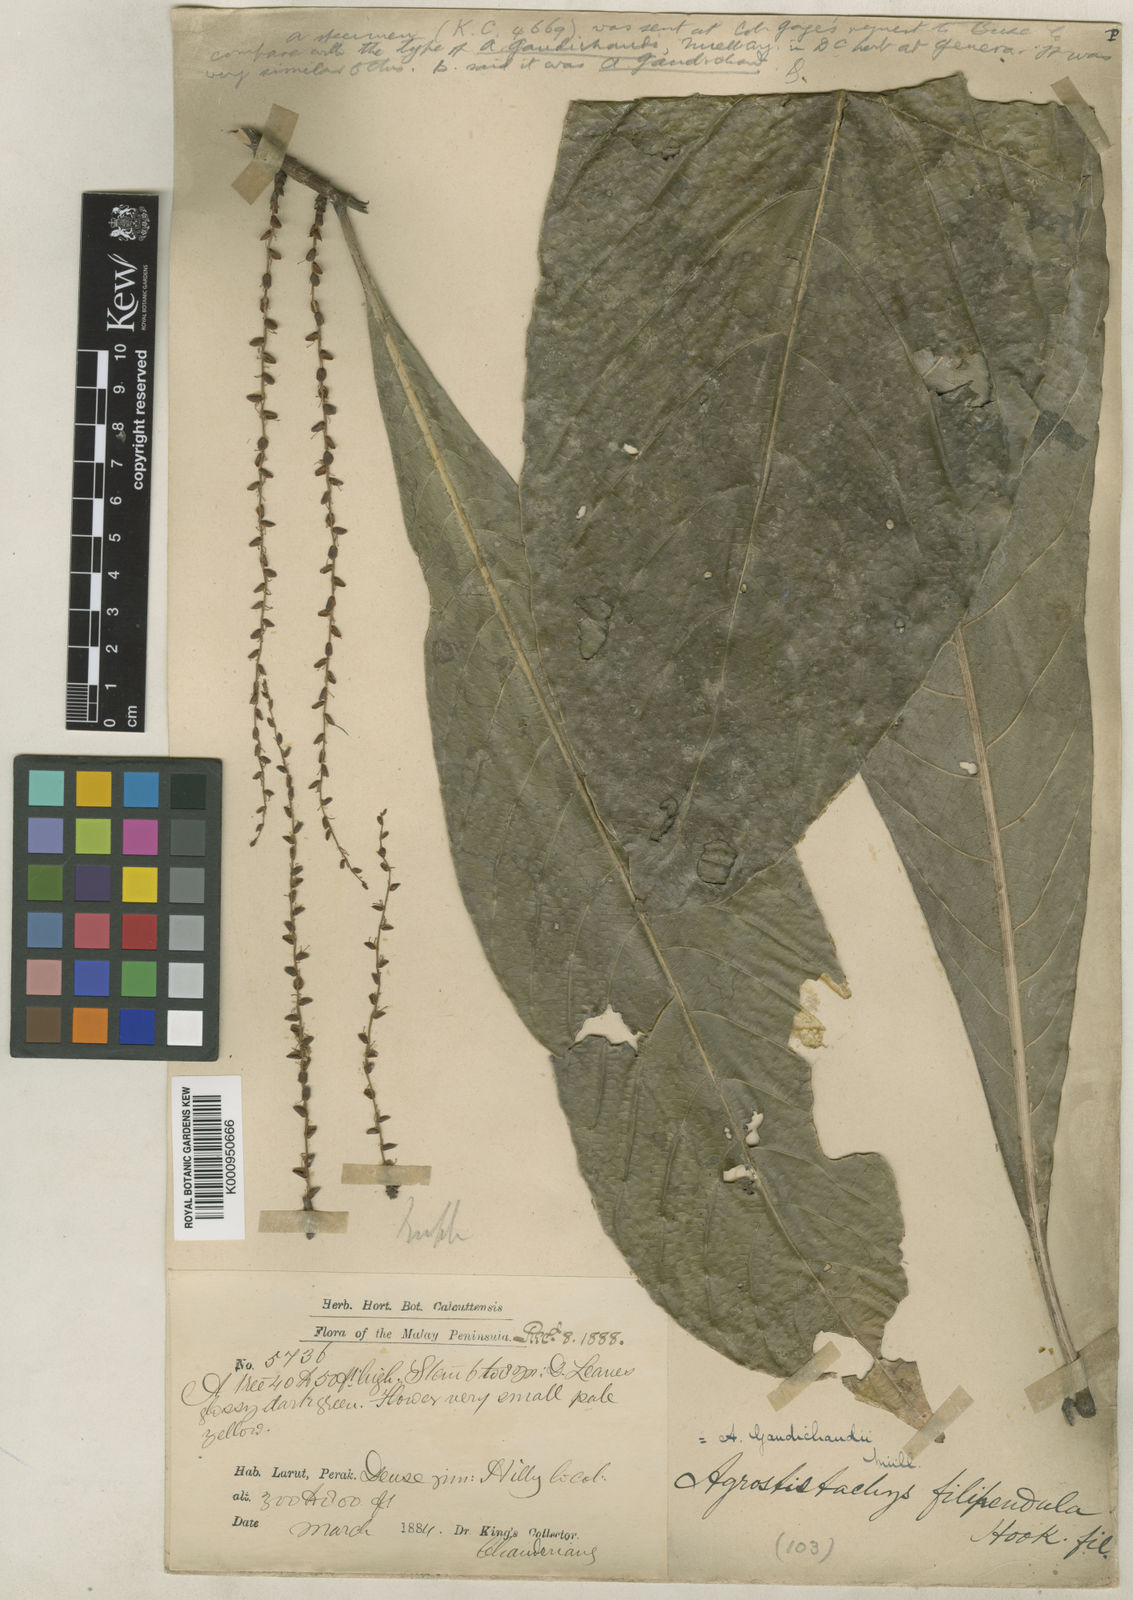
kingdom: Plantae
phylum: Tracheophyta
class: Magnoliopsida
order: Malpighiales
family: Euphorbiaceae
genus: Agrostistachys
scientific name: Agrostistachys gaudichaudii
